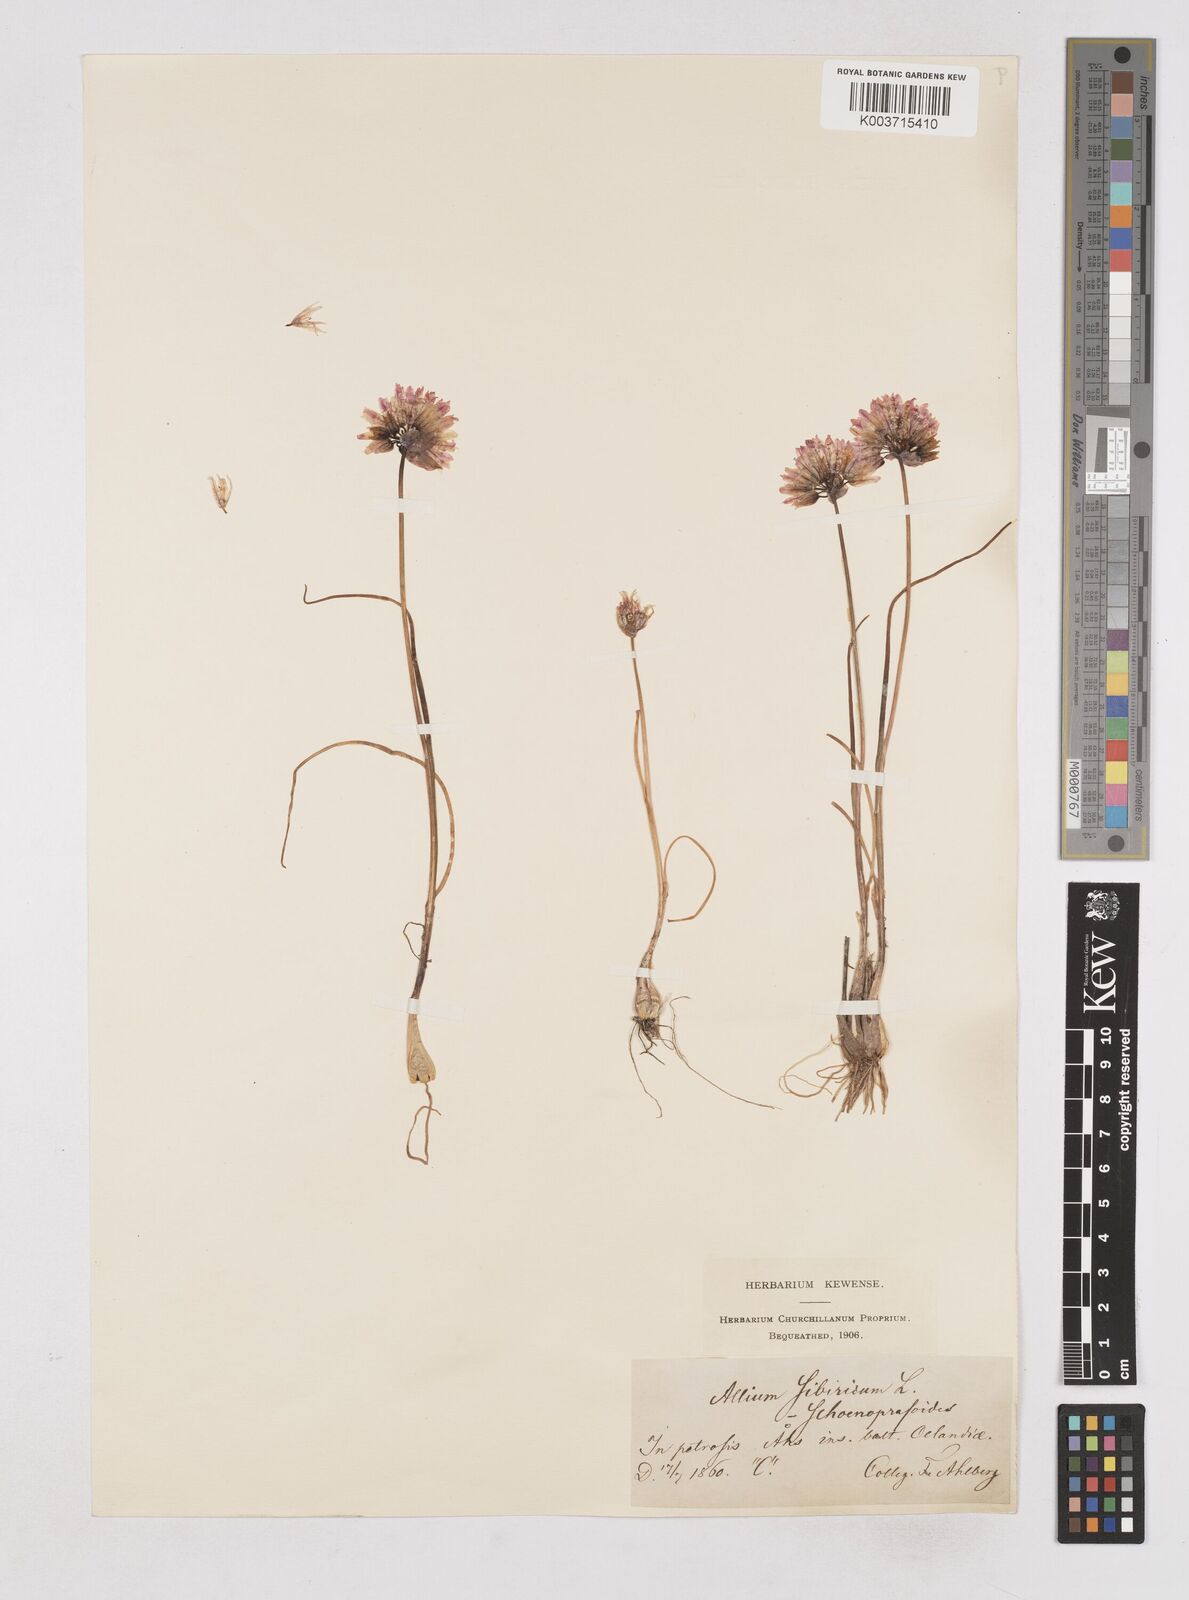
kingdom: Plantae
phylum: Tracheophyta
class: Liliopsida
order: Asparagales
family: Amaryllidaceae
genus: Allium
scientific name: Allium schoenoprasum
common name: Chives
